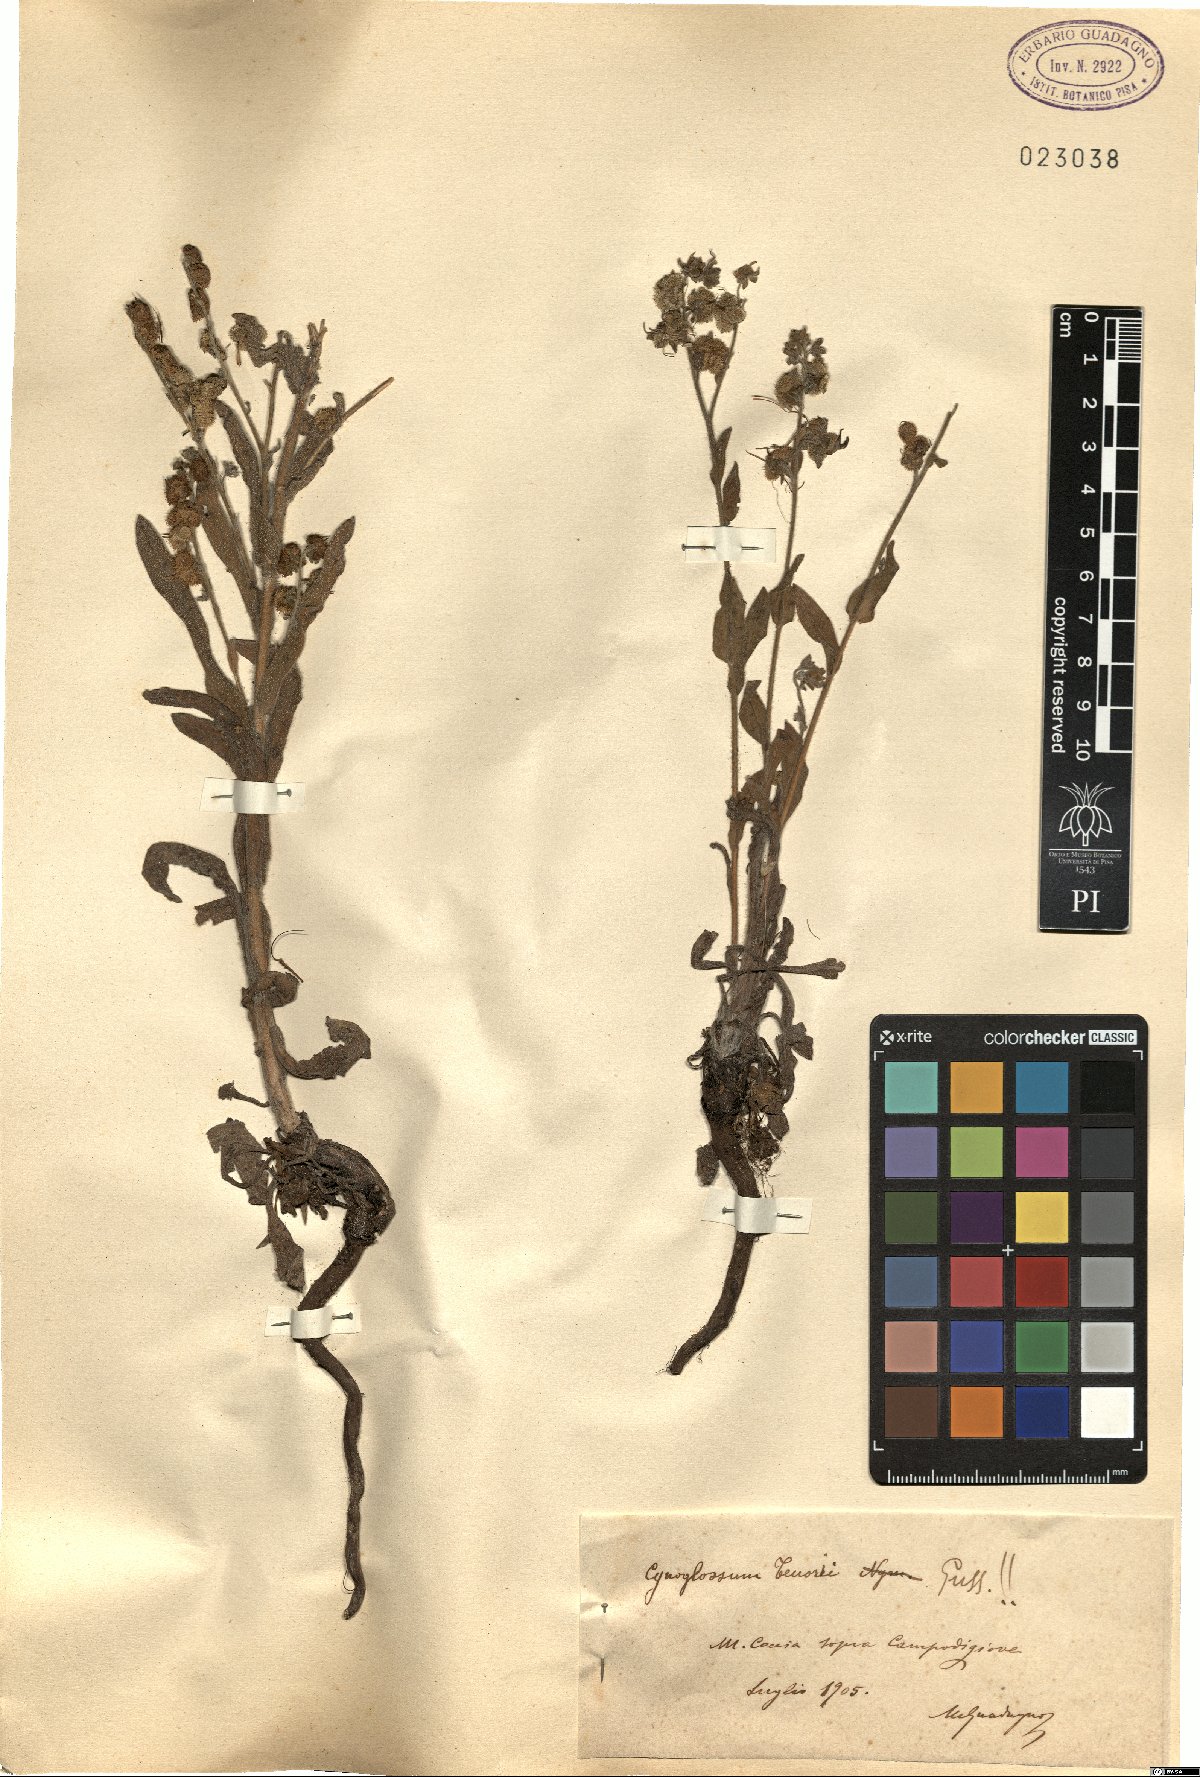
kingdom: Plantae
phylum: Tracheophyta
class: Magnoliopsida
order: Boraginales
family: Boraginaceae
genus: Cynoglossum
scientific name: Cynoglossum nebrodense
